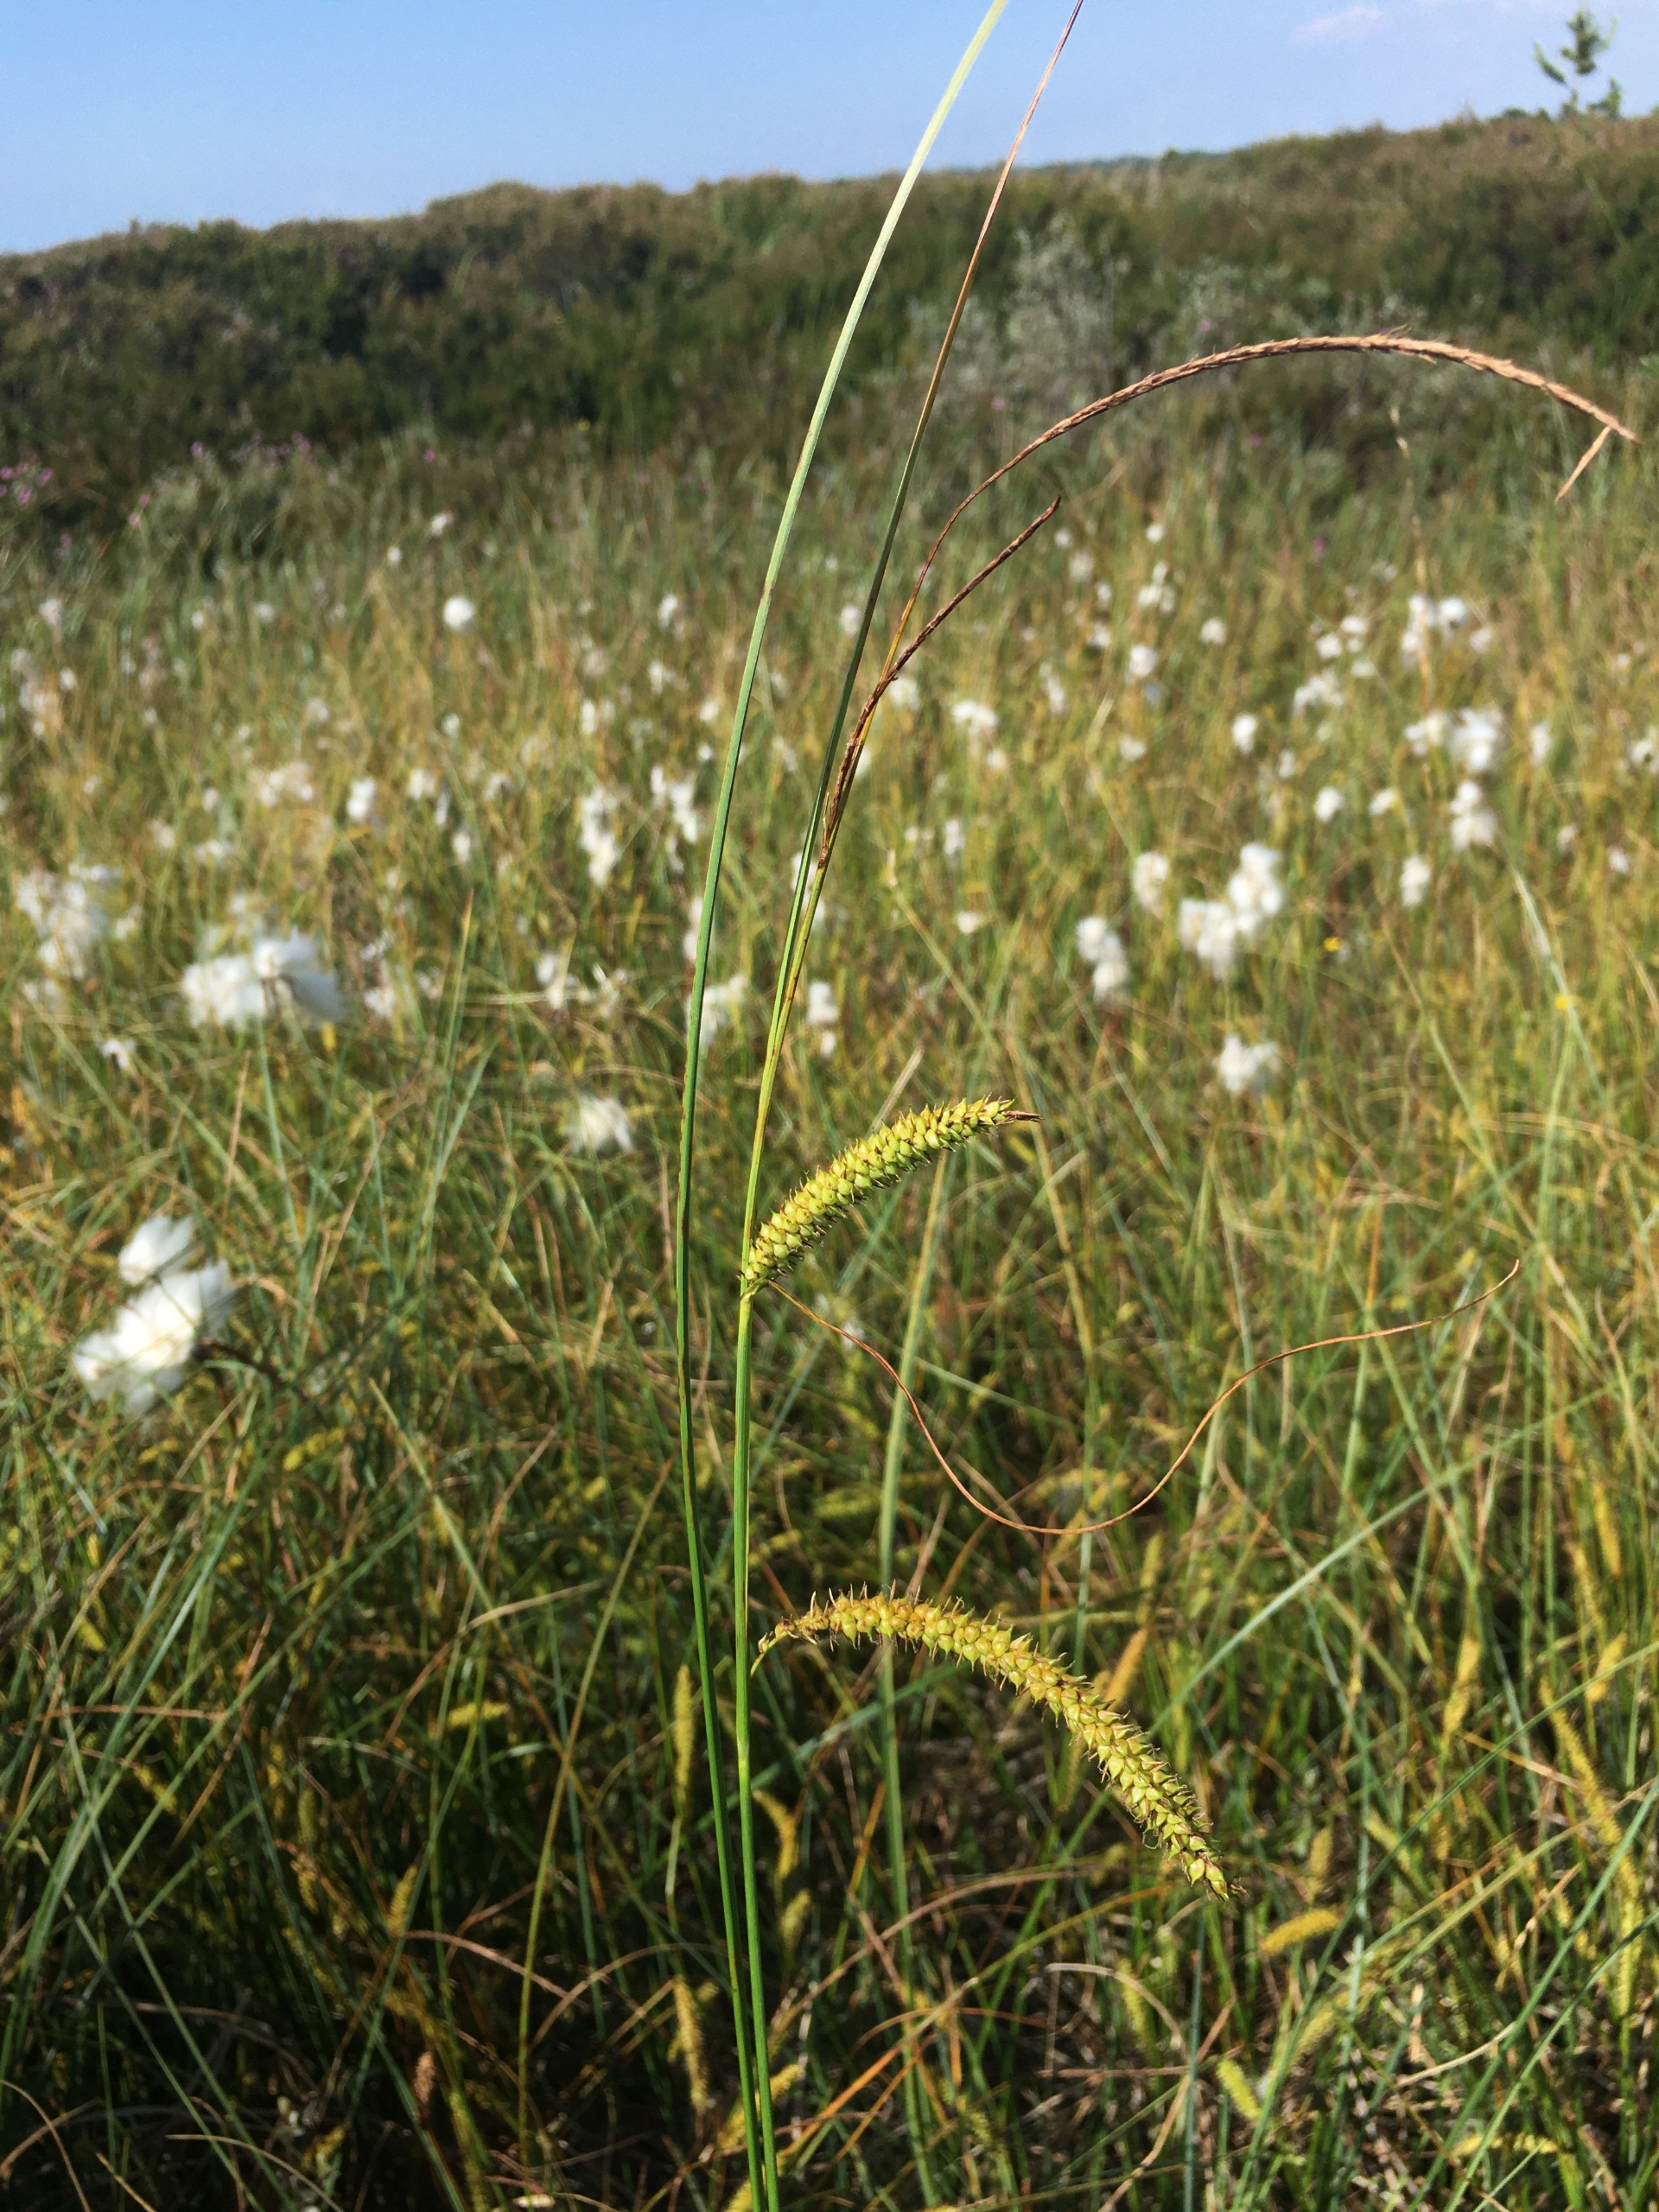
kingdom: Plantae
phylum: Tracheophyta
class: Liliopsida
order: Poales
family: Cyperaceae
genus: Carex
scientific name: Carex rostrata
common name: Næb-star
